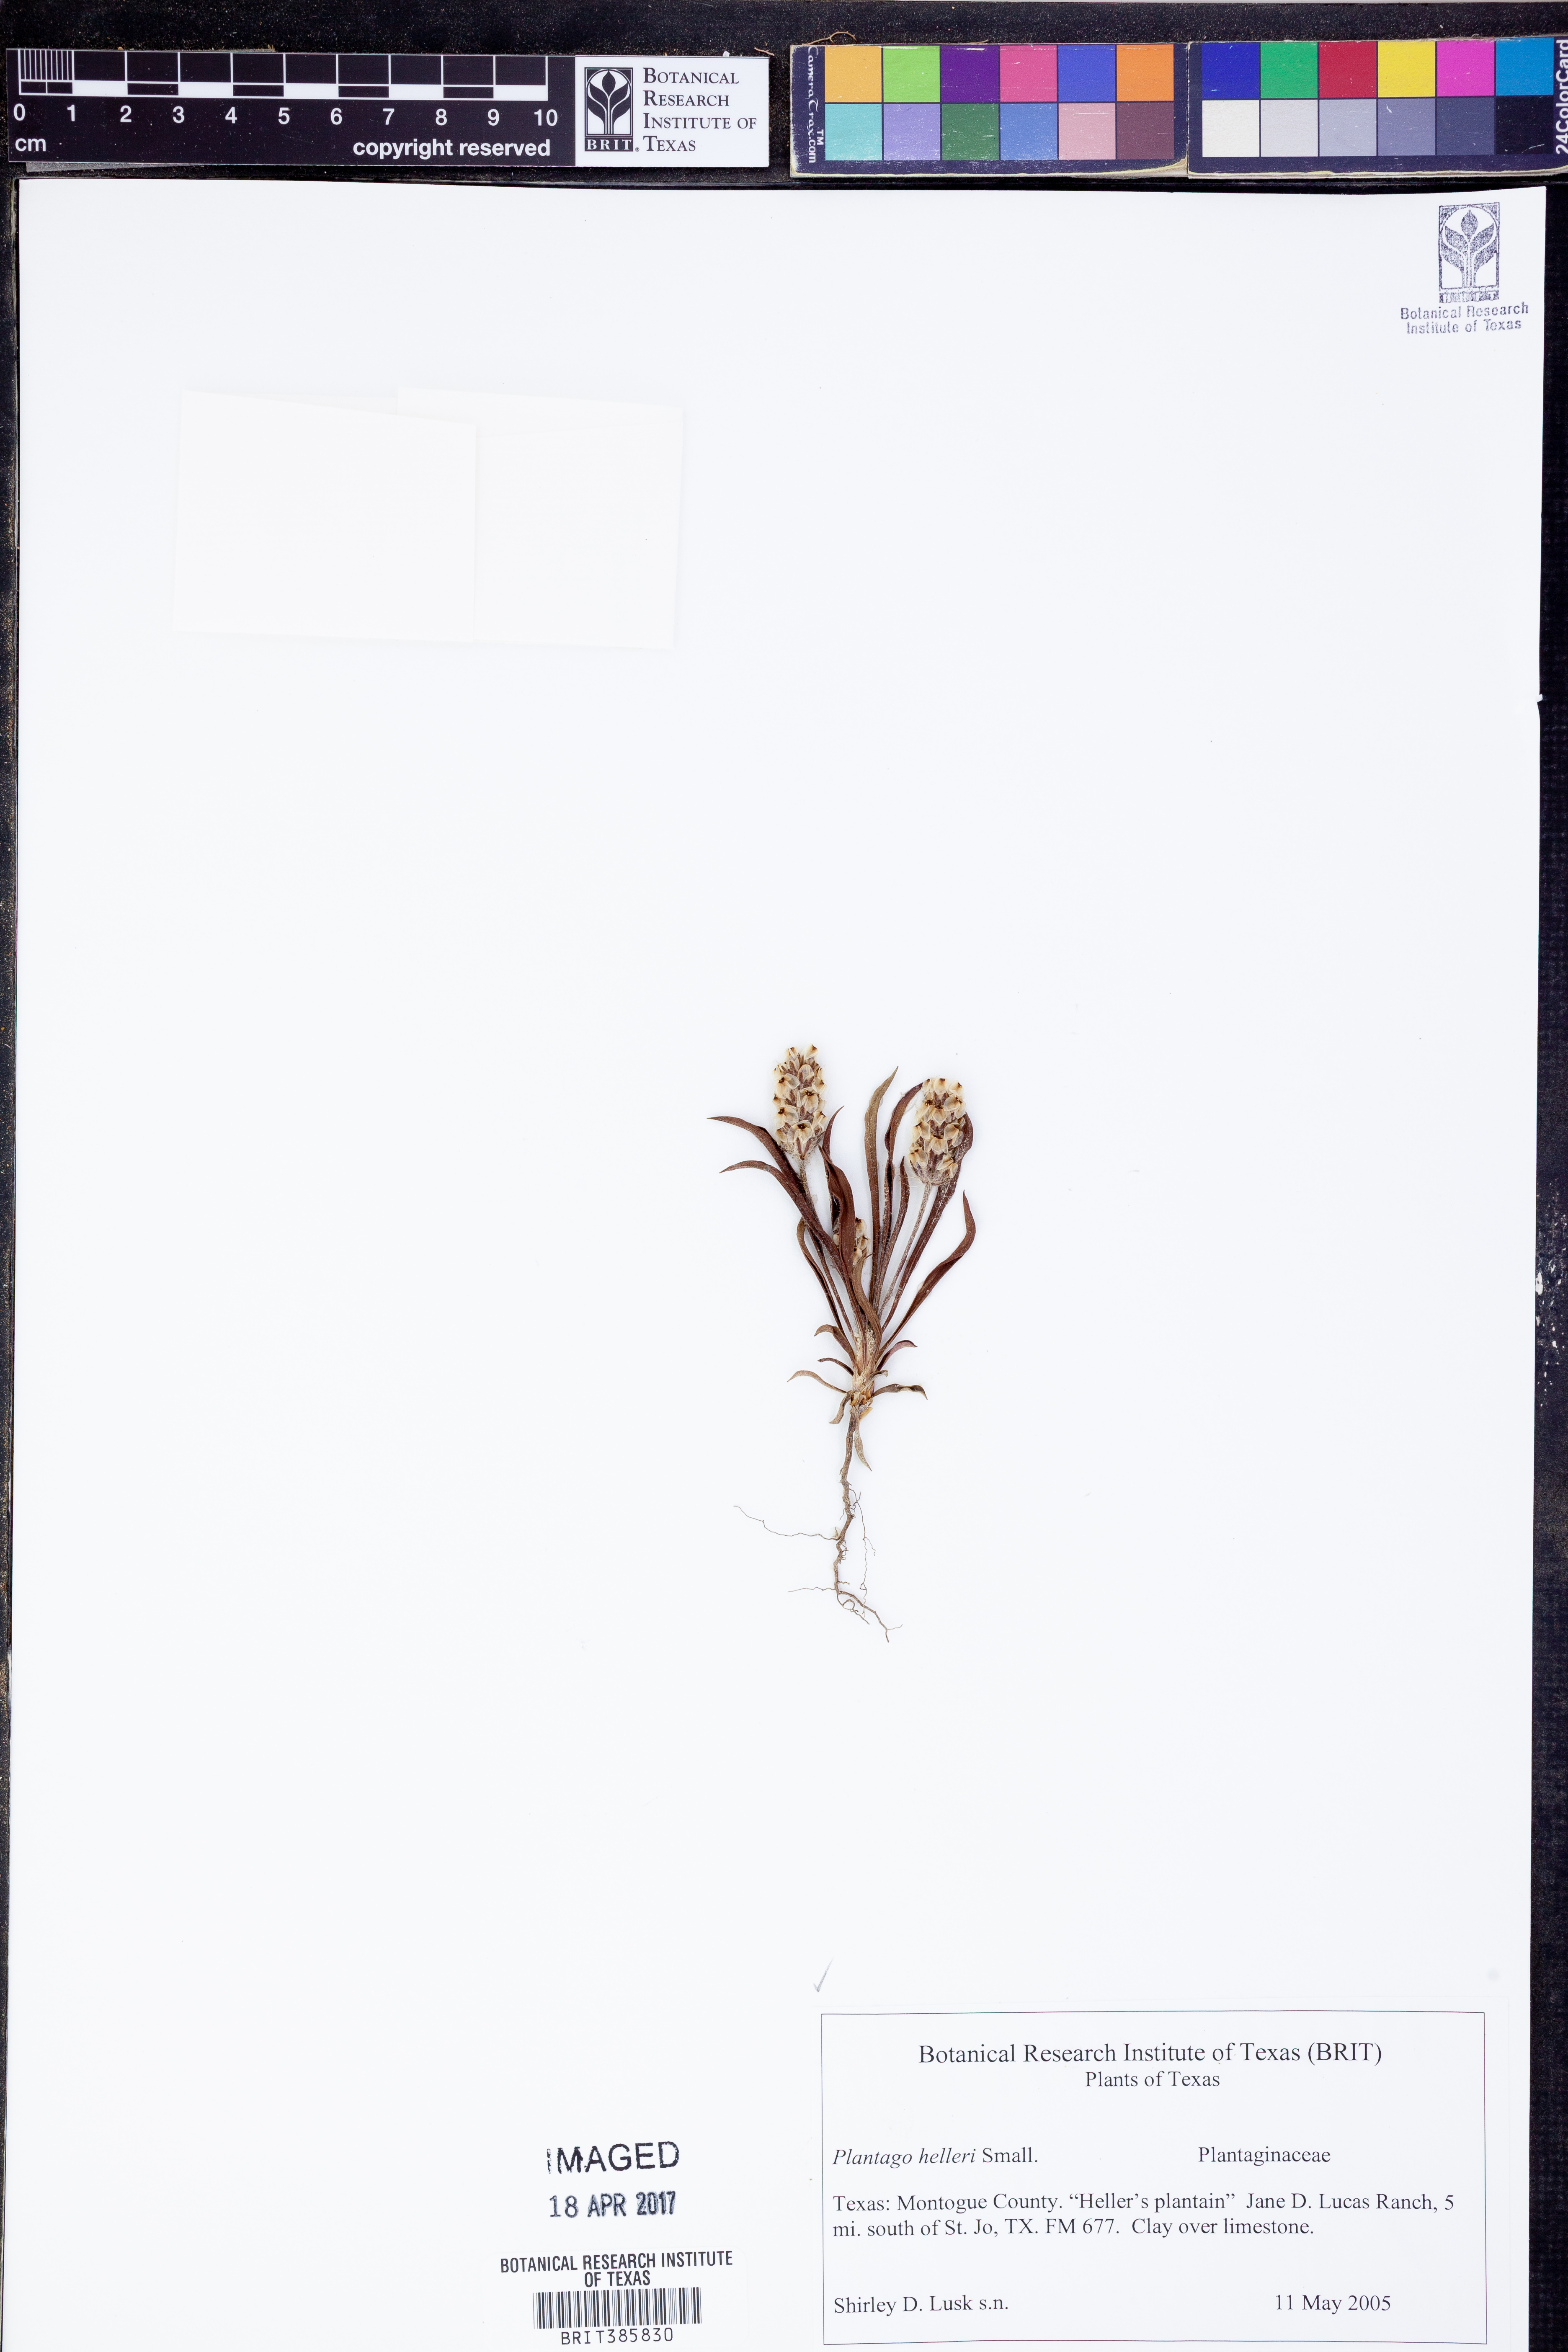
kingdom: Plantae
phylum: Tracheophyta
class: Magnoliopsida
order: Lamiales
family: Plantaginaceae
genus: Plantago
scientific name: Plantago helleri
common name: Heller's plantain
